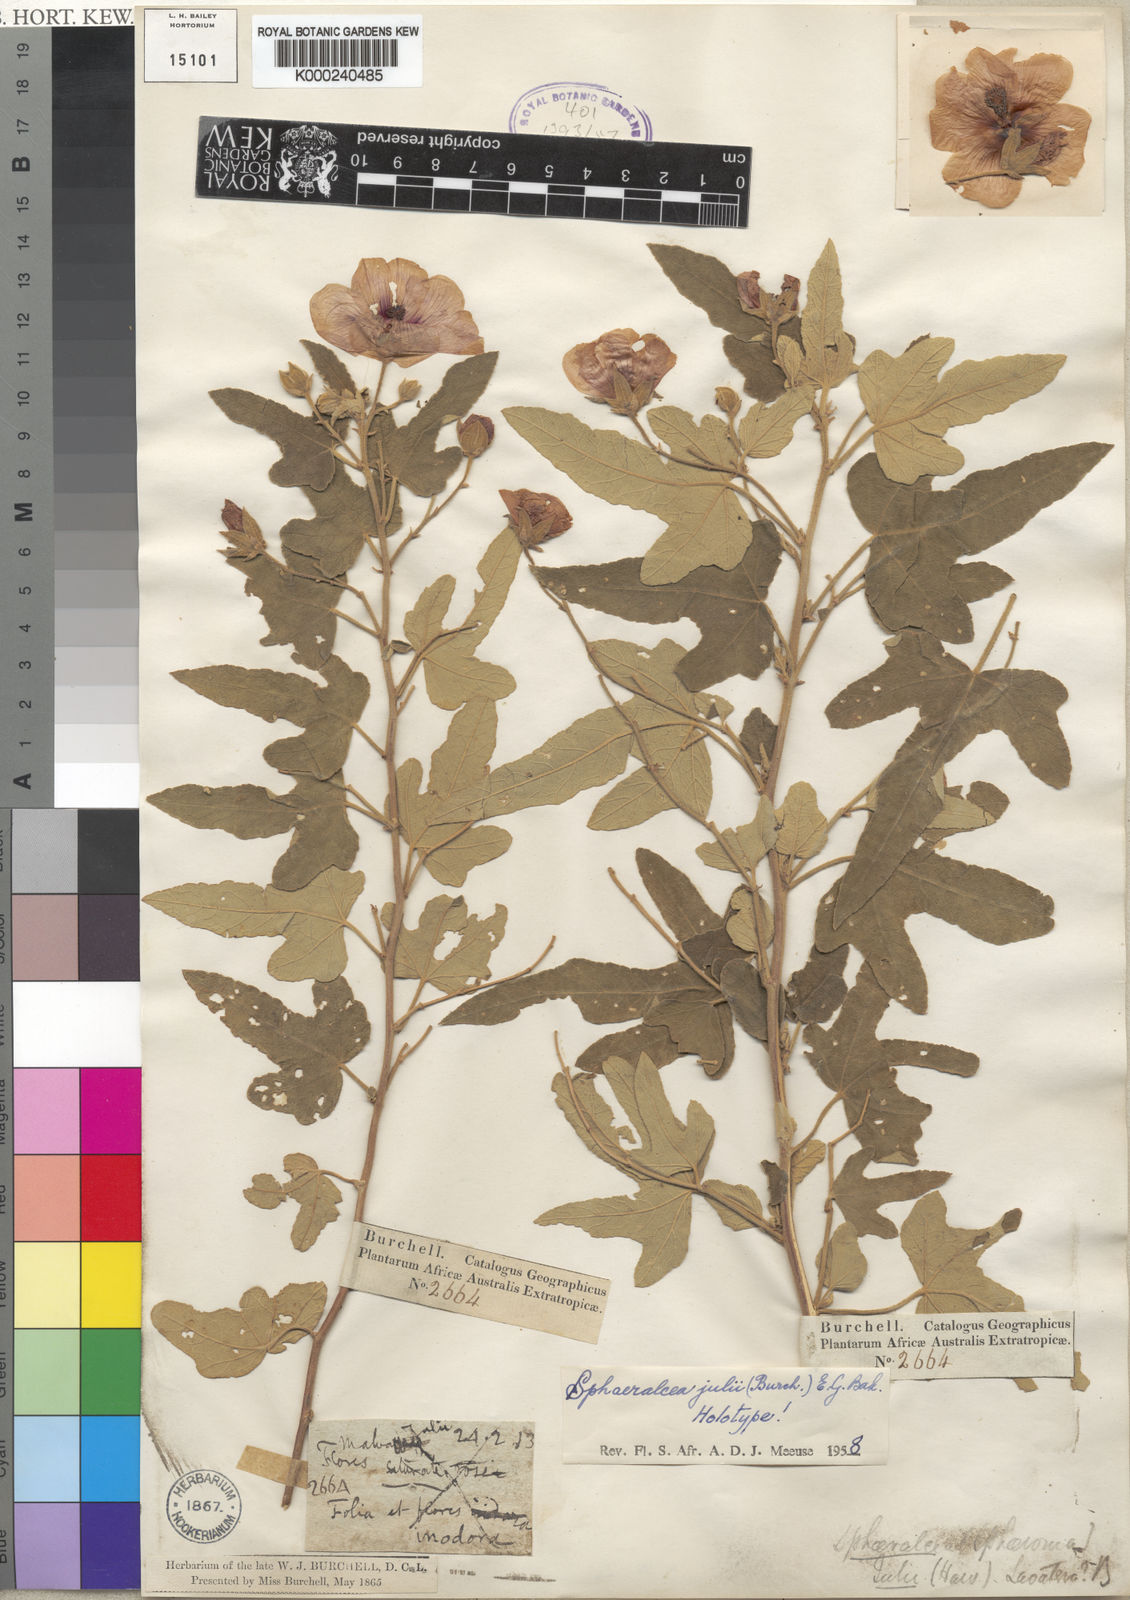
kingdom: Plantae
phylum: Tracheophyta
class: Magnoliopsida
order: Malvales
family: Malvaceae
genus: Sphaeralcea
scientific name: Sphaeralcea
